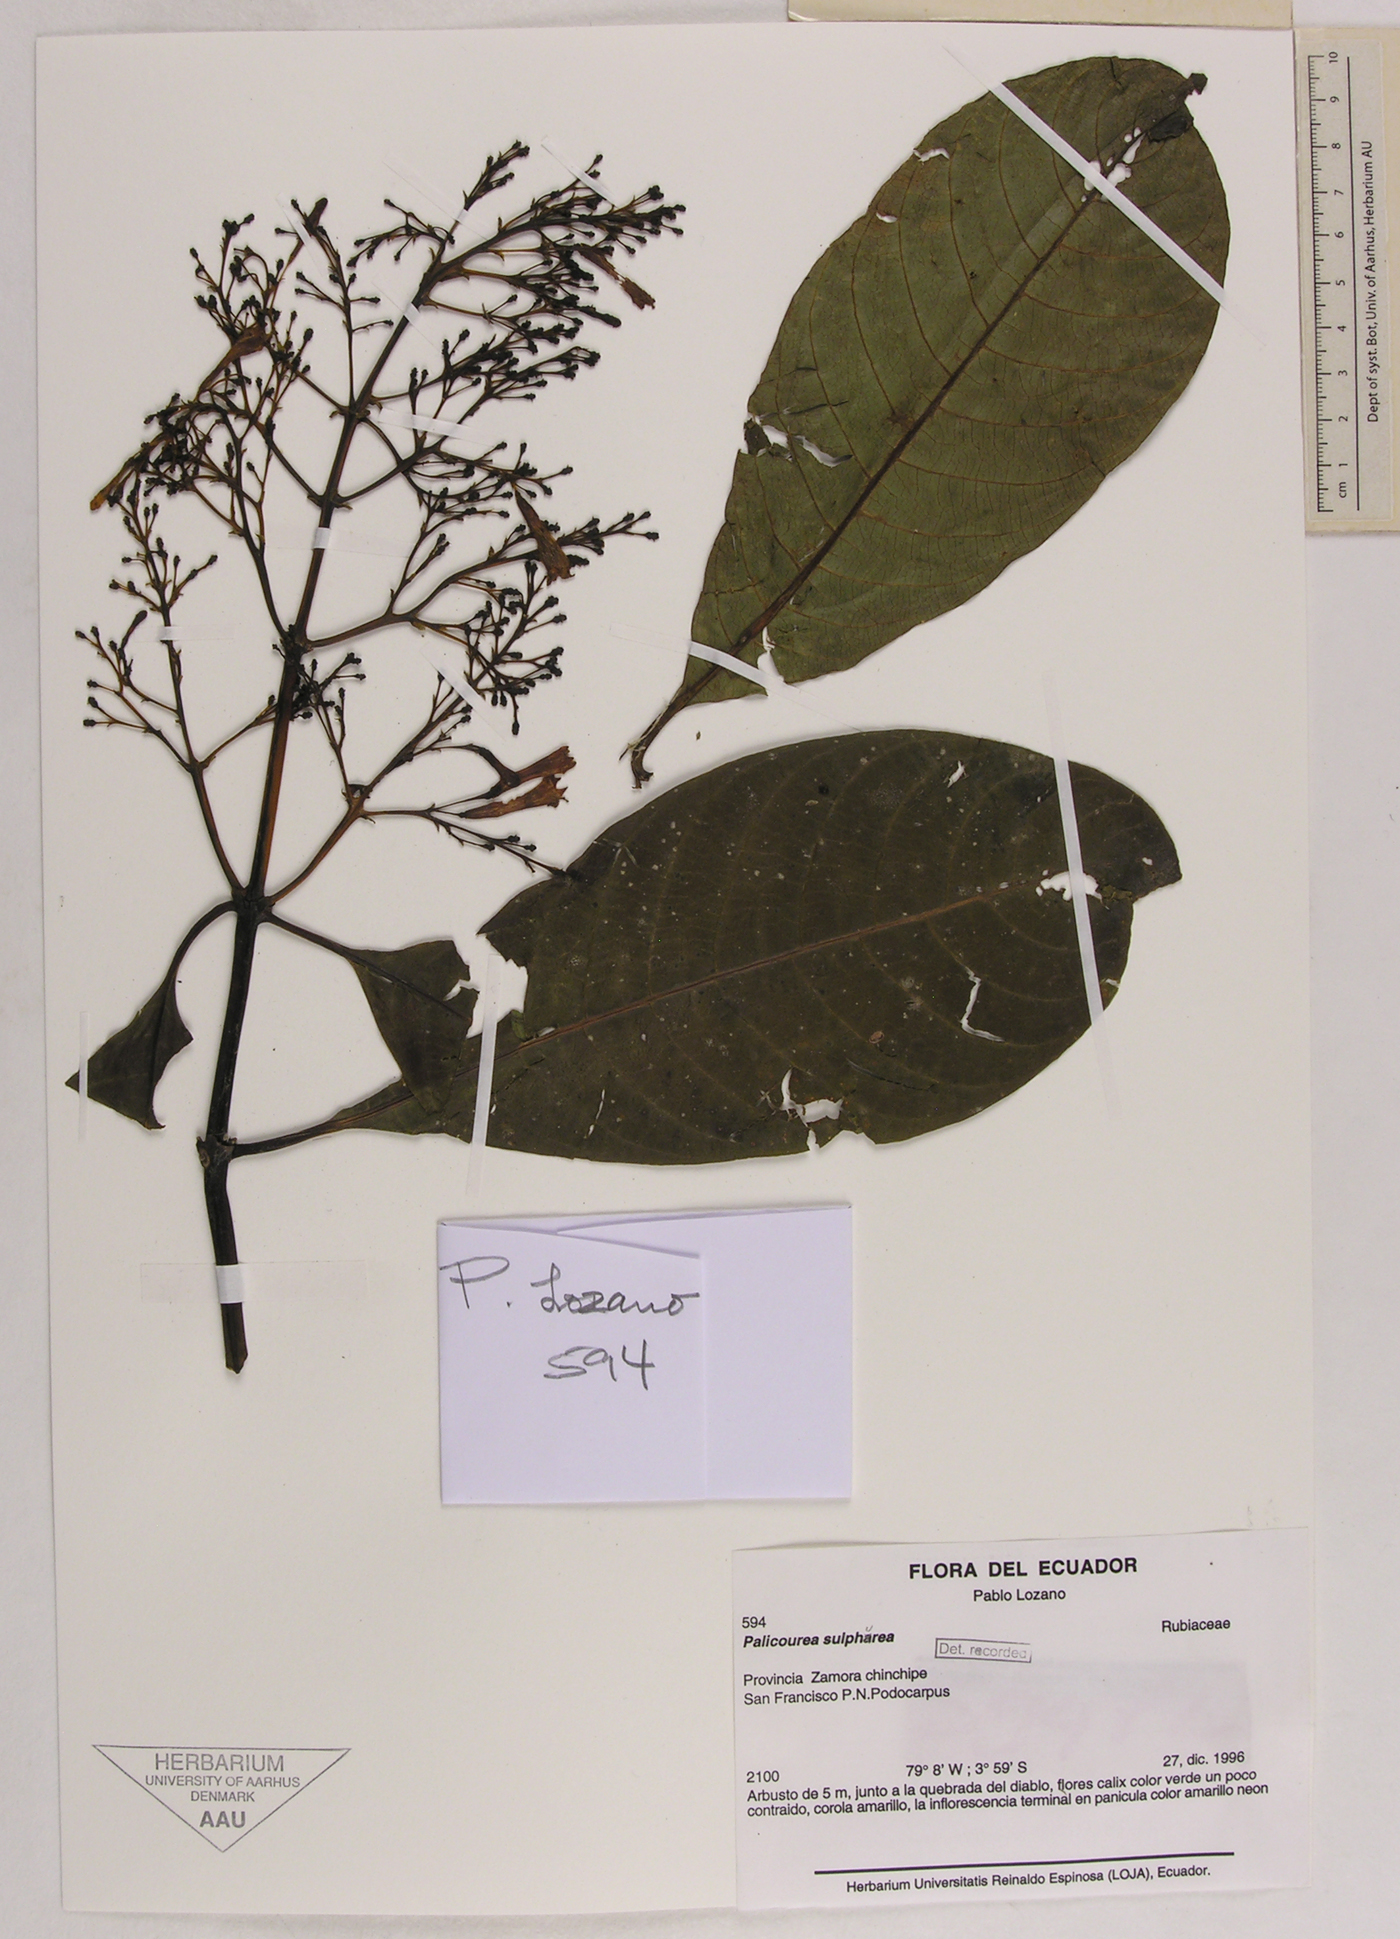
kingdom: Plantae
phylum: Tracheophyta
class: Magnoliopsida
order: Gentianales
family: Rubiaceae
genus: Palicourea
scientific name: Palicourea sulphurea
